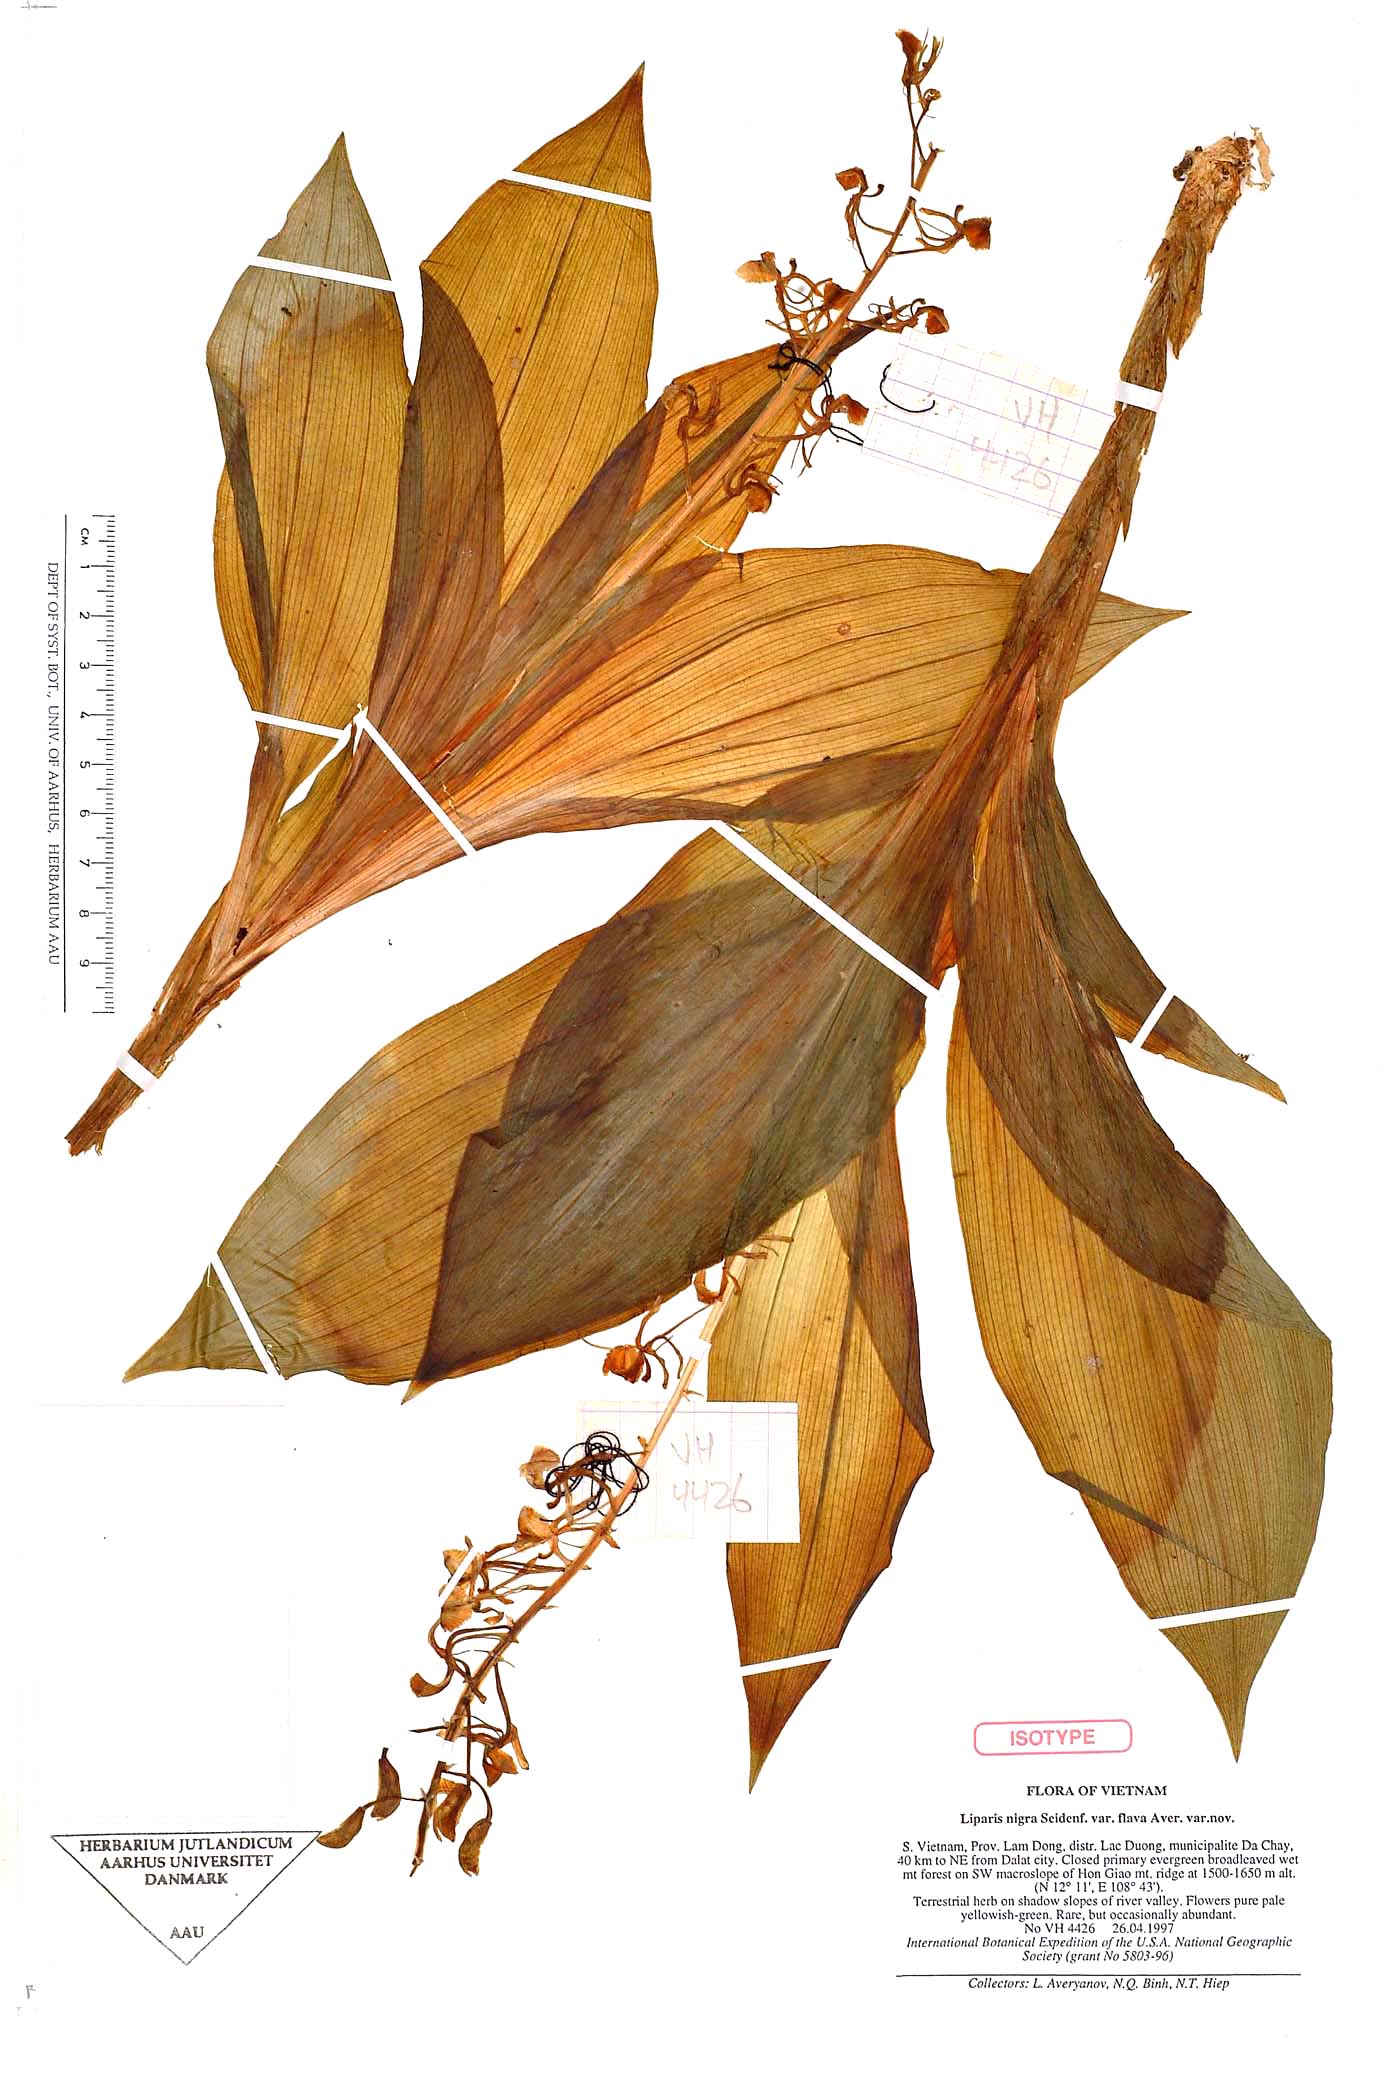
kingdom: Plantae
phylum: Tracheophyta
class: Liliopsida
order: Asparagales
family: Orchidaceae
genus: Liparis
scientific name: Liparis sootenzanensis
